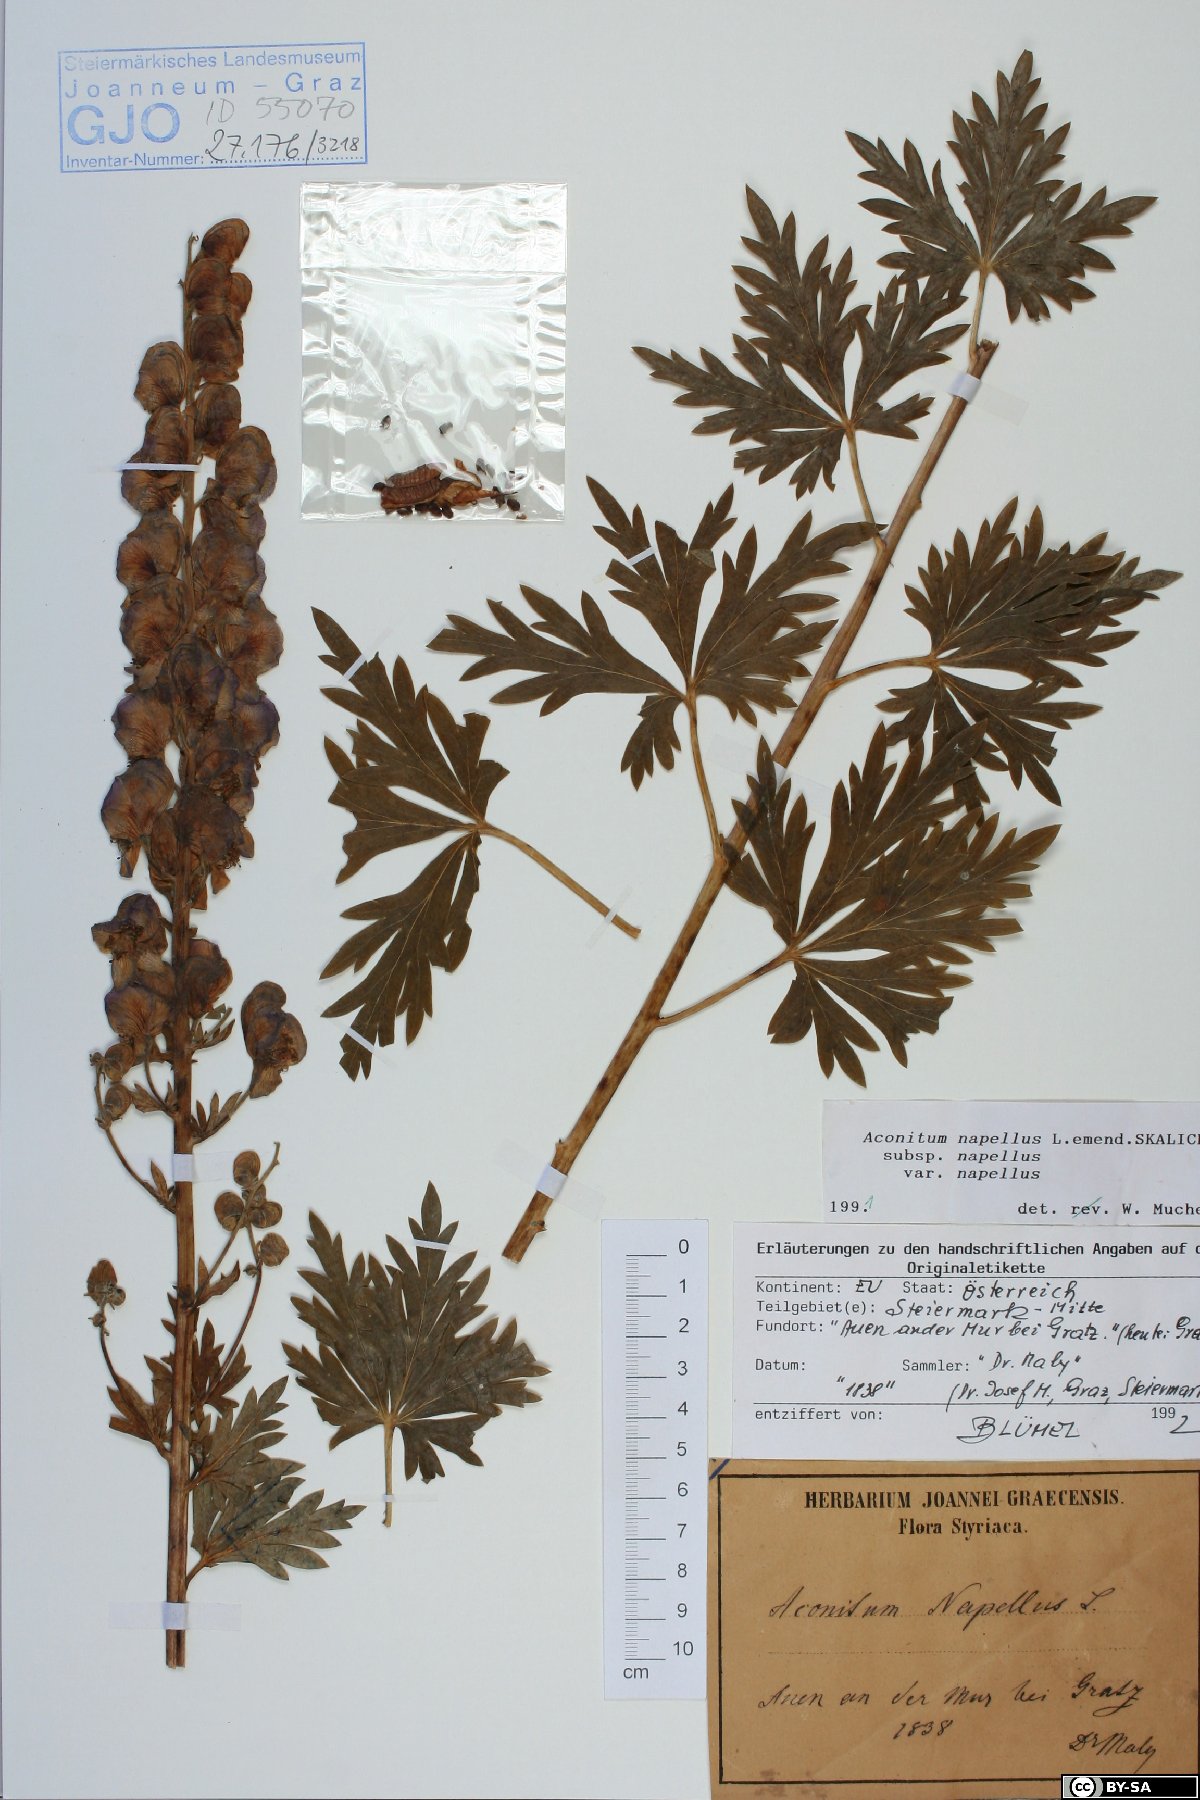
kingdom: Plantae
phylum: Tracheophyta
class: Magnoliopsida
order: Ranunculales
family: Ranunculaceae
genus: Aconitum
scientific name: Aconitum napellus
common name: Garden monkshood
